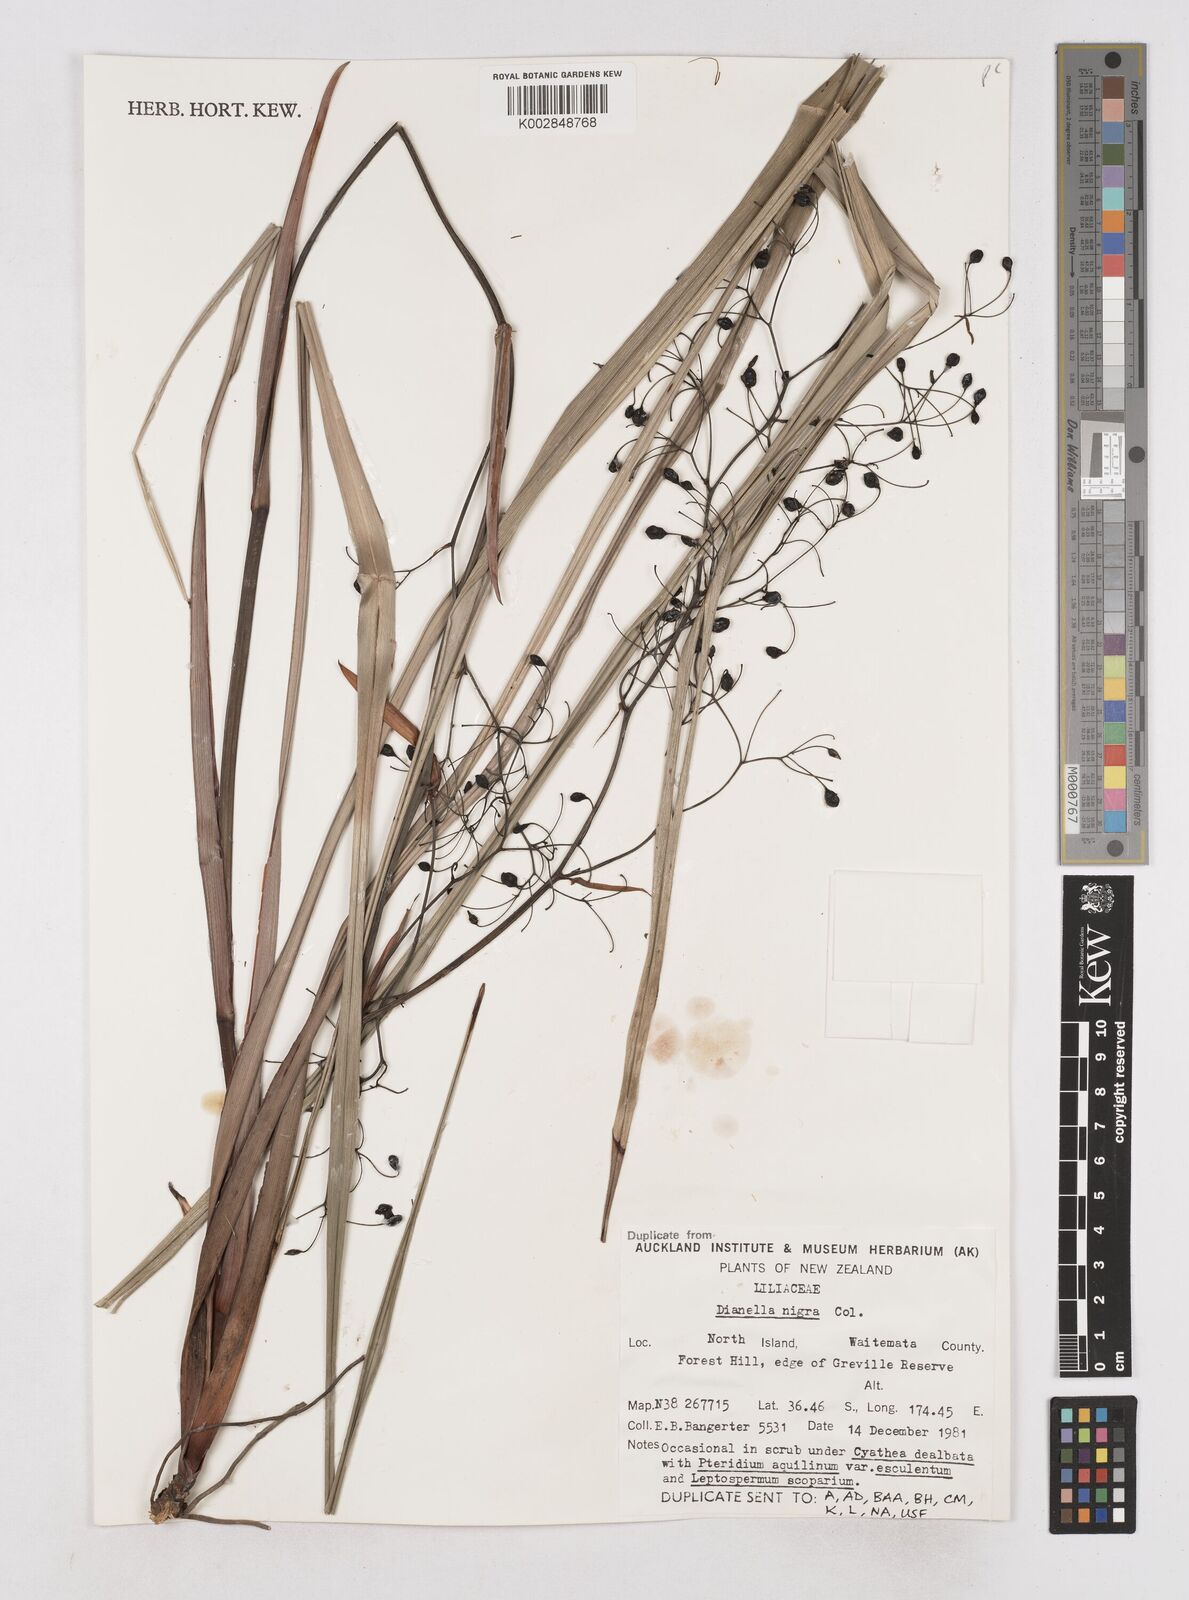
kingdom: Plantae
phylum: Tracheophyta
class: Liliopsida
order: Asparagales
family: Asphodelaceae
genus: Dianella
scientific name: Dianella nigra
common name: New zealand-blueberry
